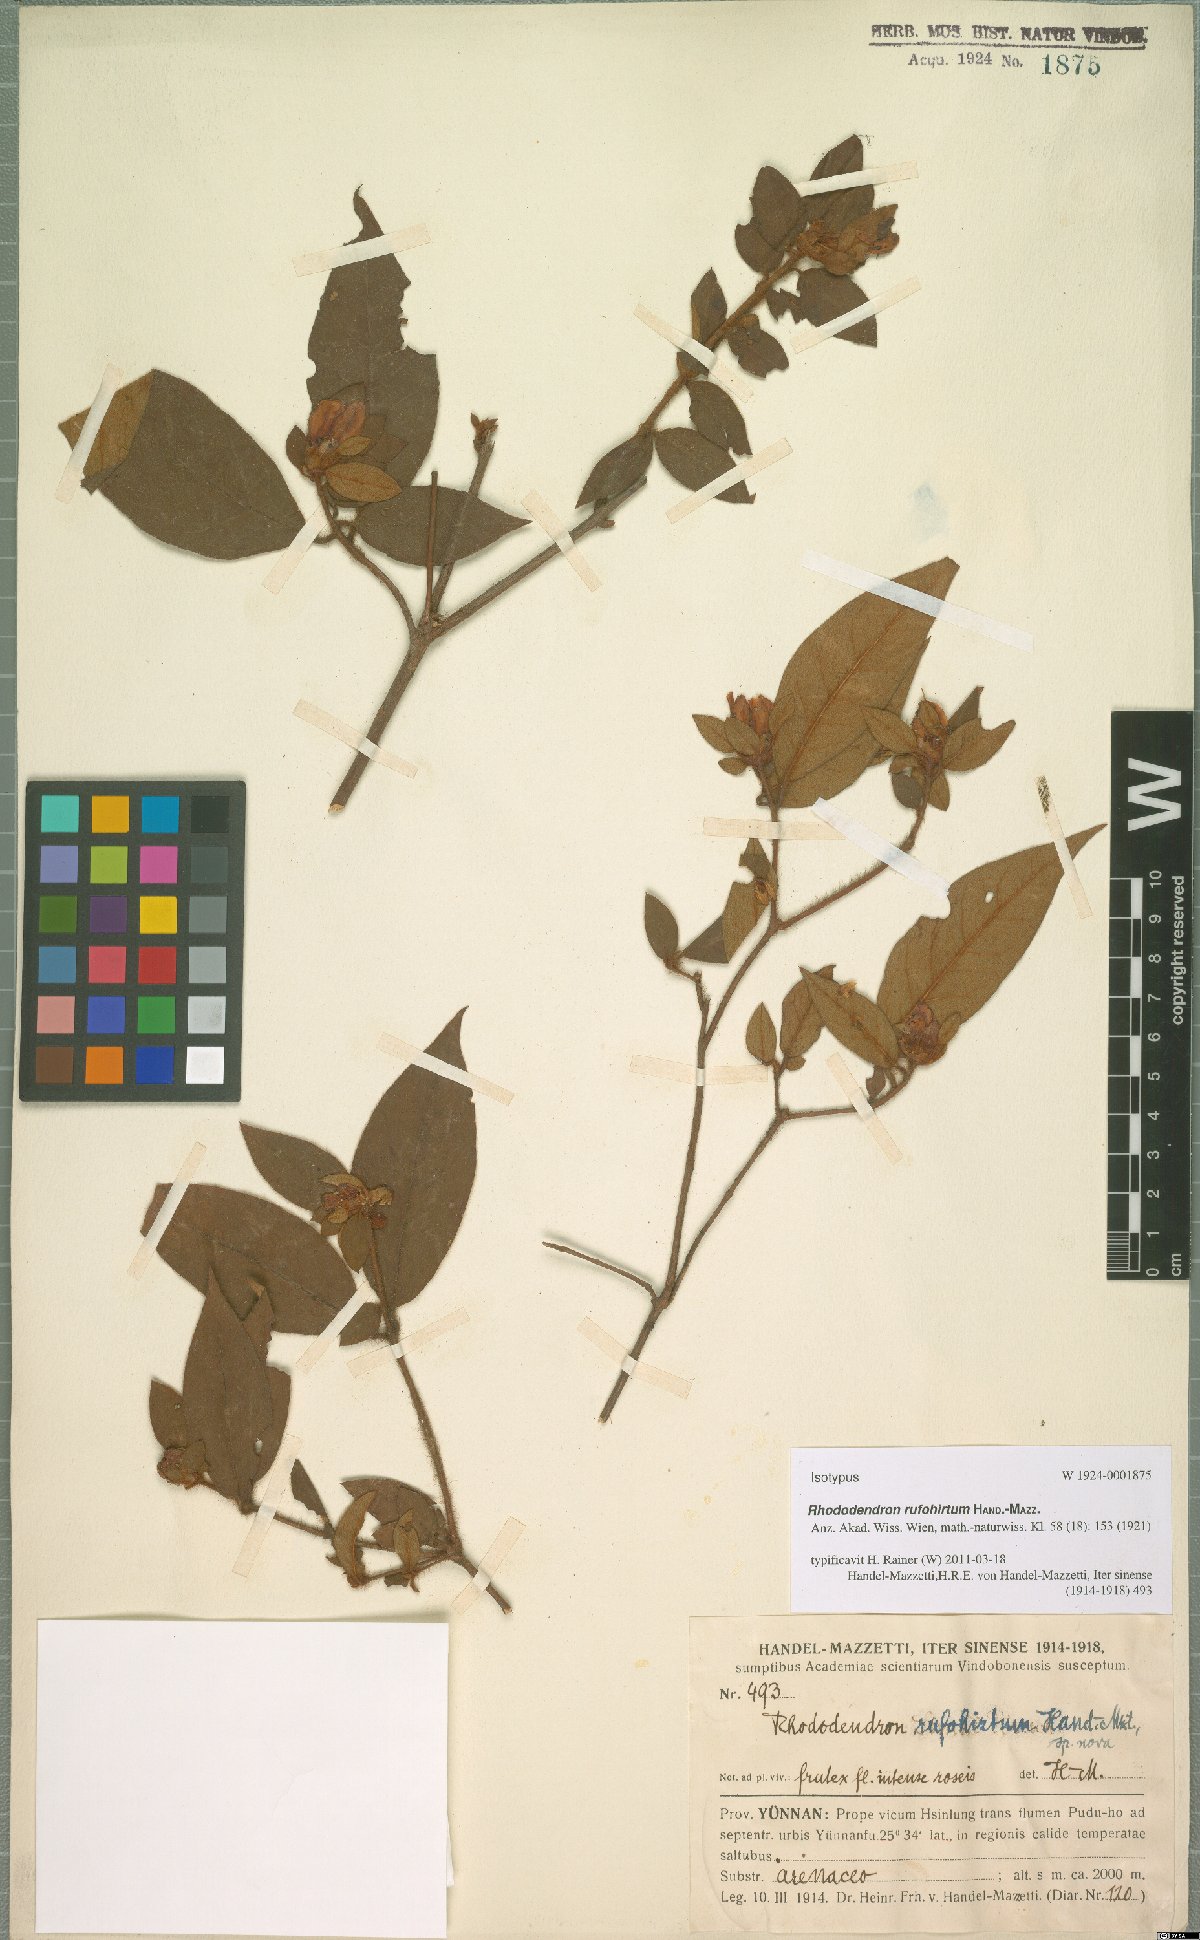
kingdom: Plantae
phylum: Tracheophyta
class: Magnoliopsida
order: Ericales
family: Ericaceae
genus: Rhododendron
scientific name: Rhododendron rufohirtum
